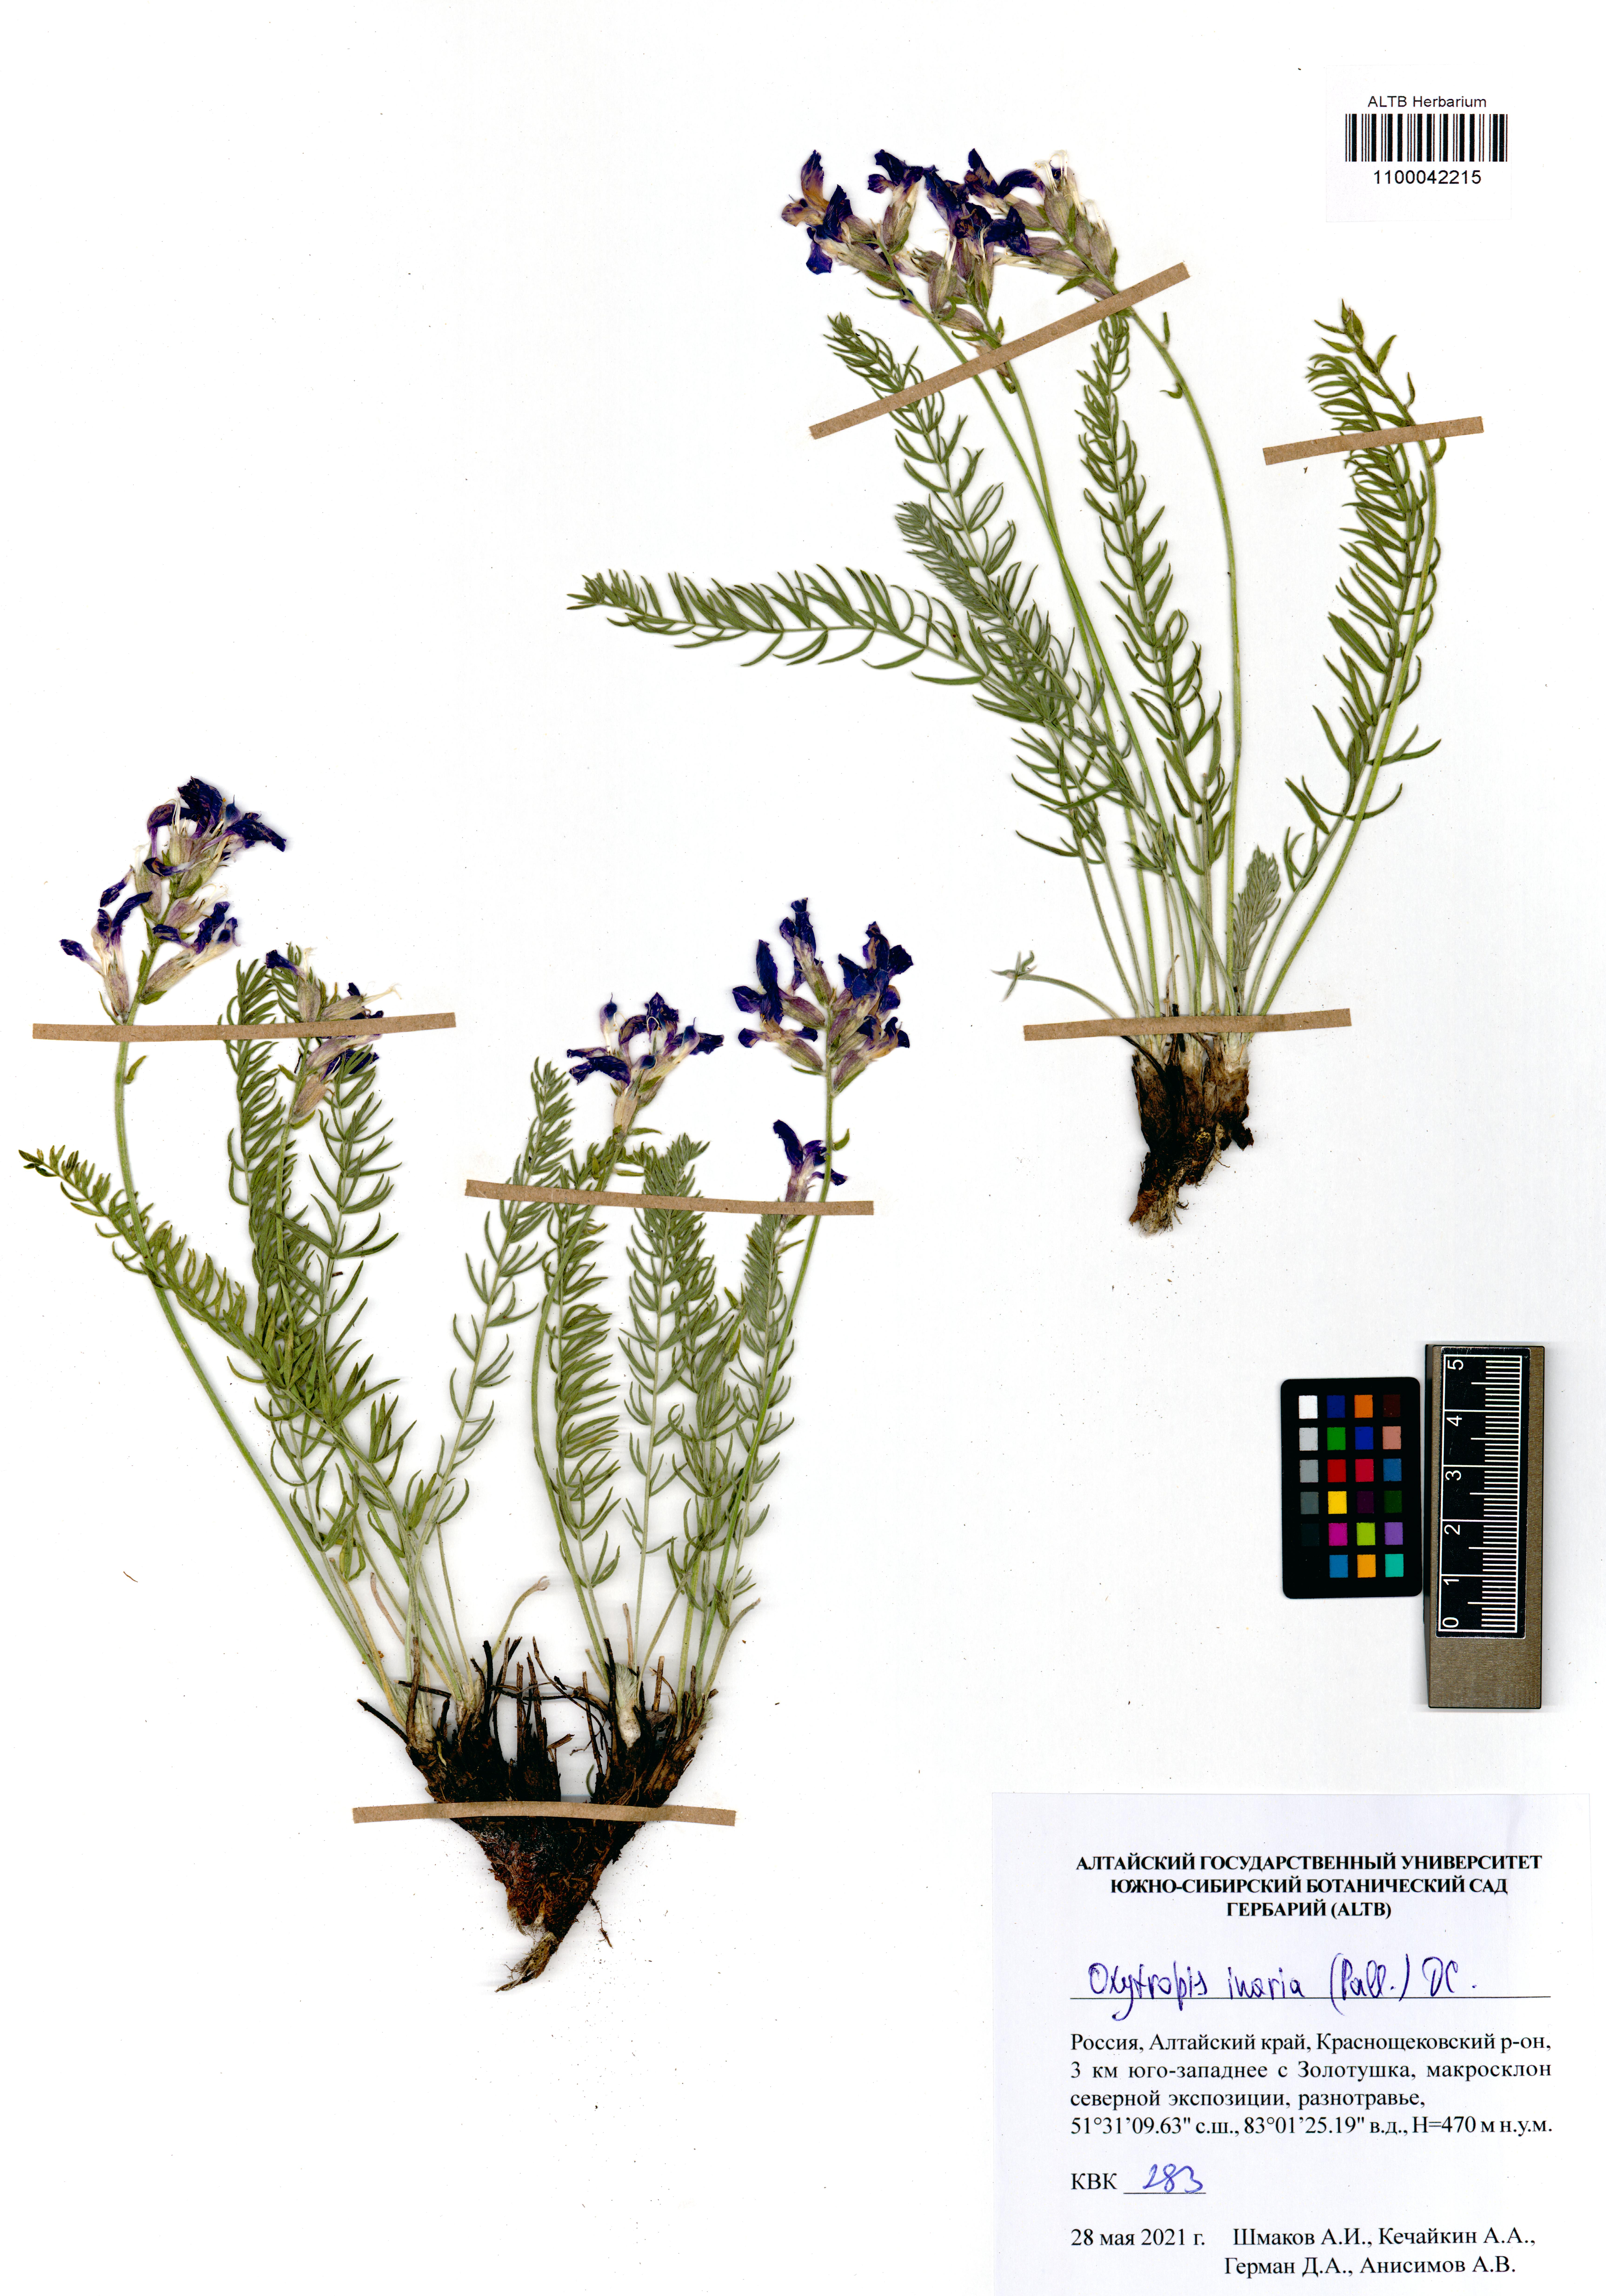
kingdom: Plantae
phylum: Tracheophyta
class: Magnoliopsida
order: Fabales
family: Fabaceae
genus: Oxytropis
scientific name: Oxytropis inaria
